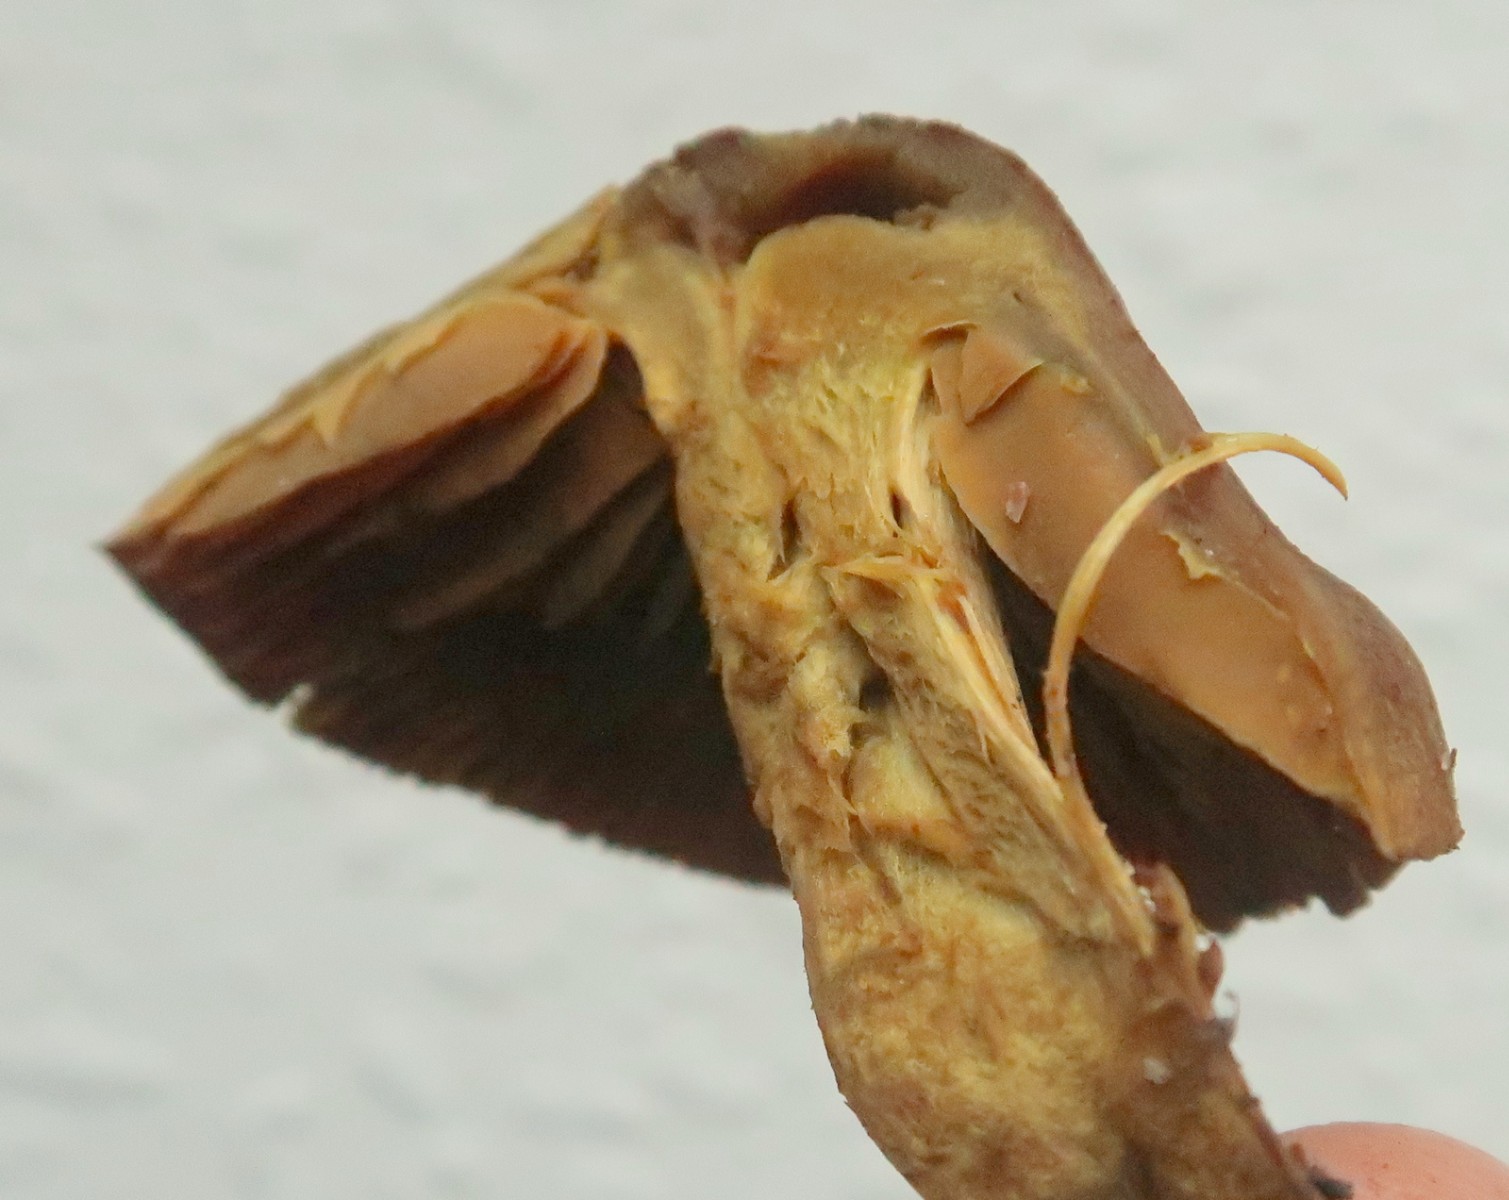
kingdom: Fungi
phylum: Basidiomycota
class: Agaricomycetes
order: Agaricales
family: Cortinariaceae
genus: Cortinarius
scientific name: Cortinarius
